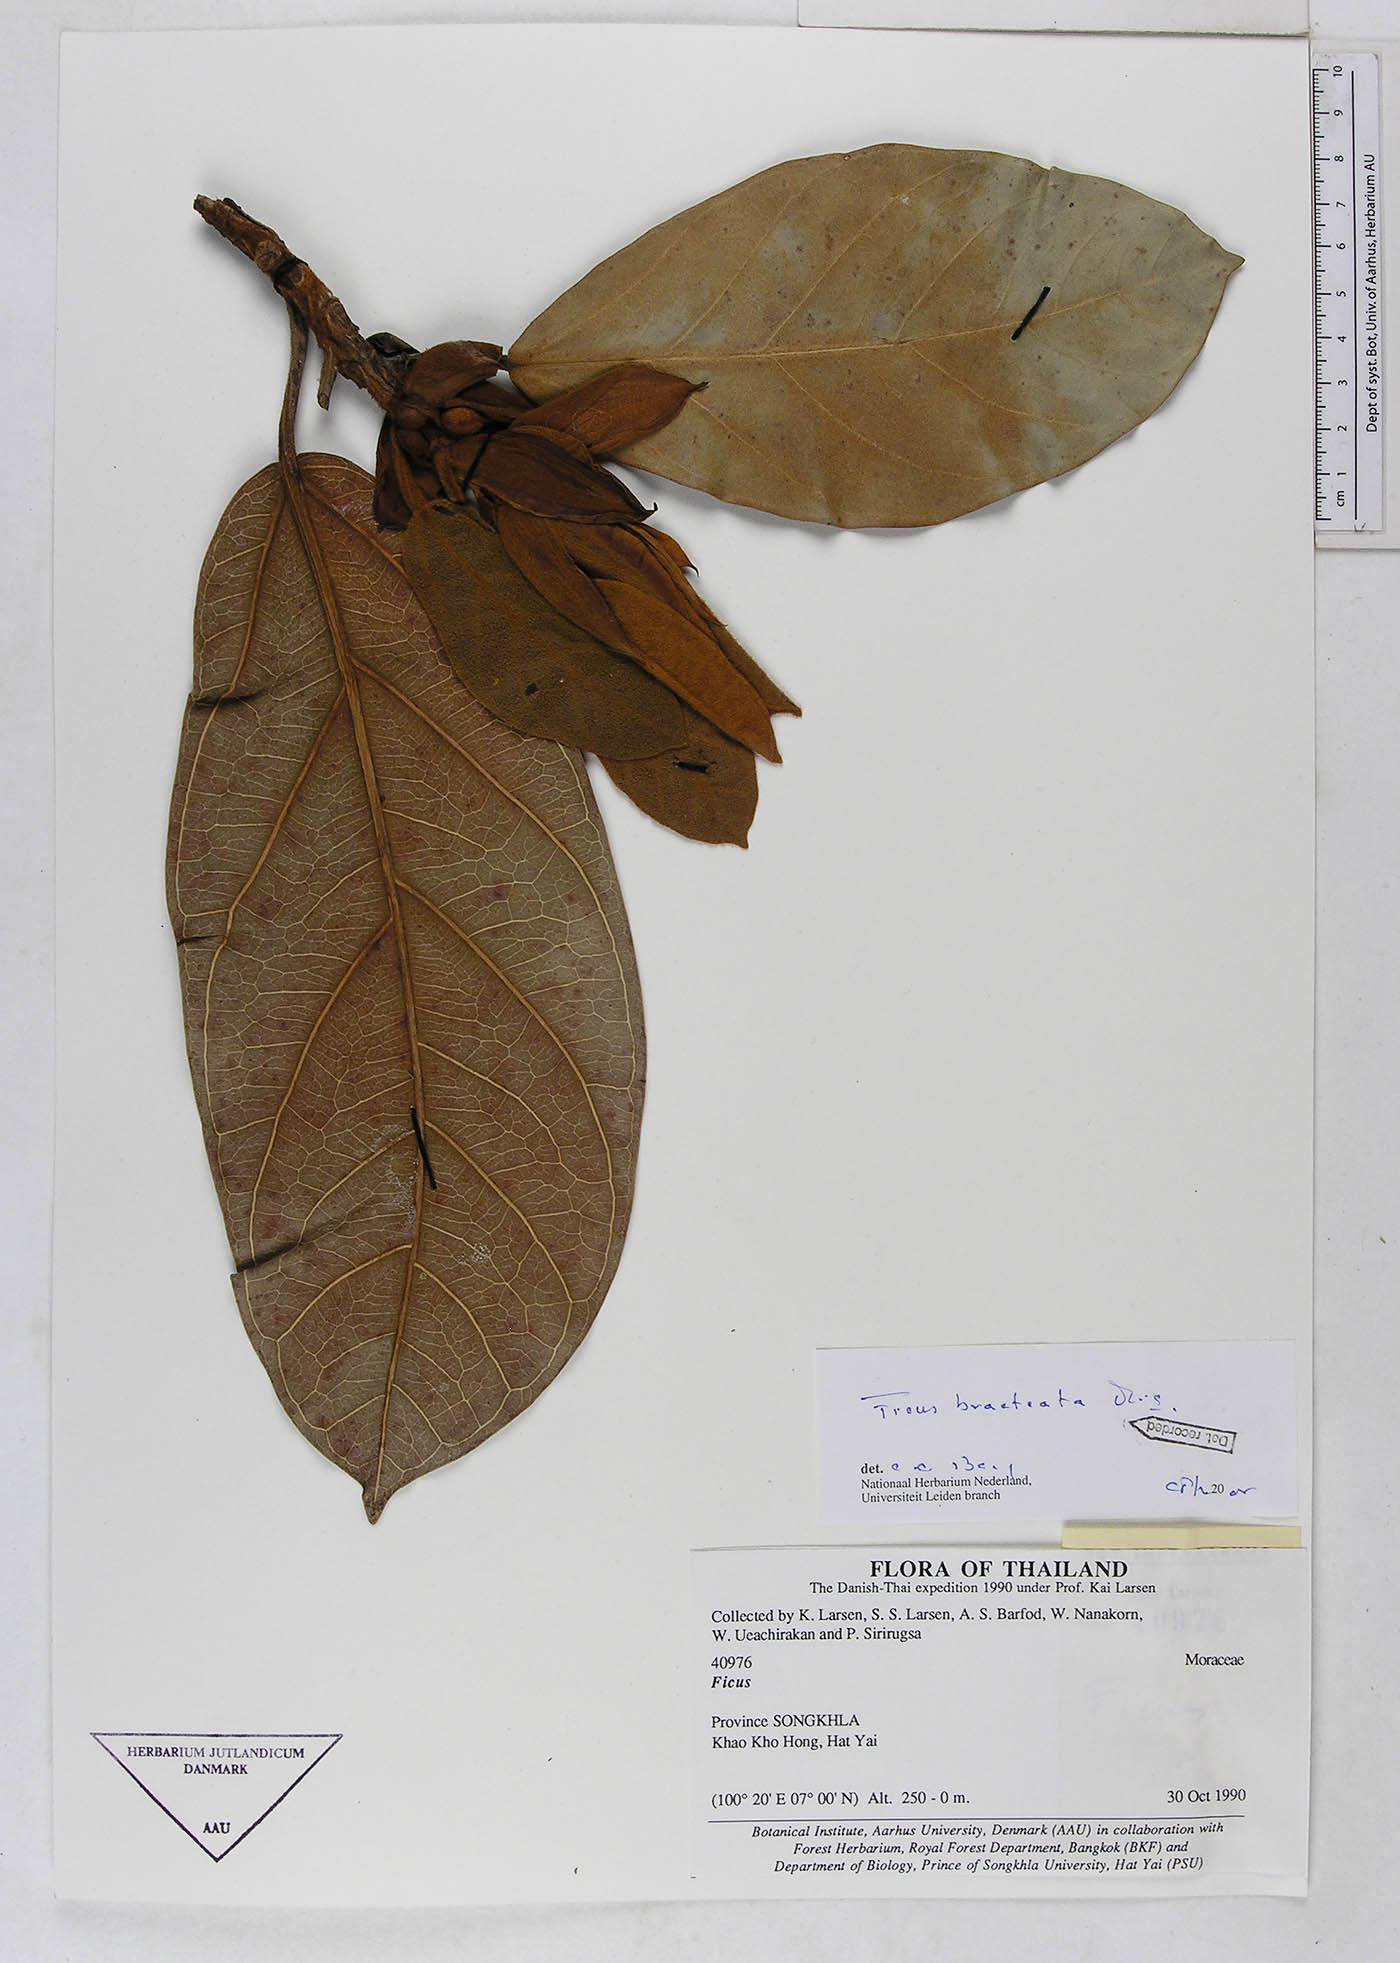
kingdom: Plantae
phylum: Tracheophyta
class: Magnoliopsida
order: Rosales
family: Moraceae
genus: Ficus
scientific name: Ficus consociata
